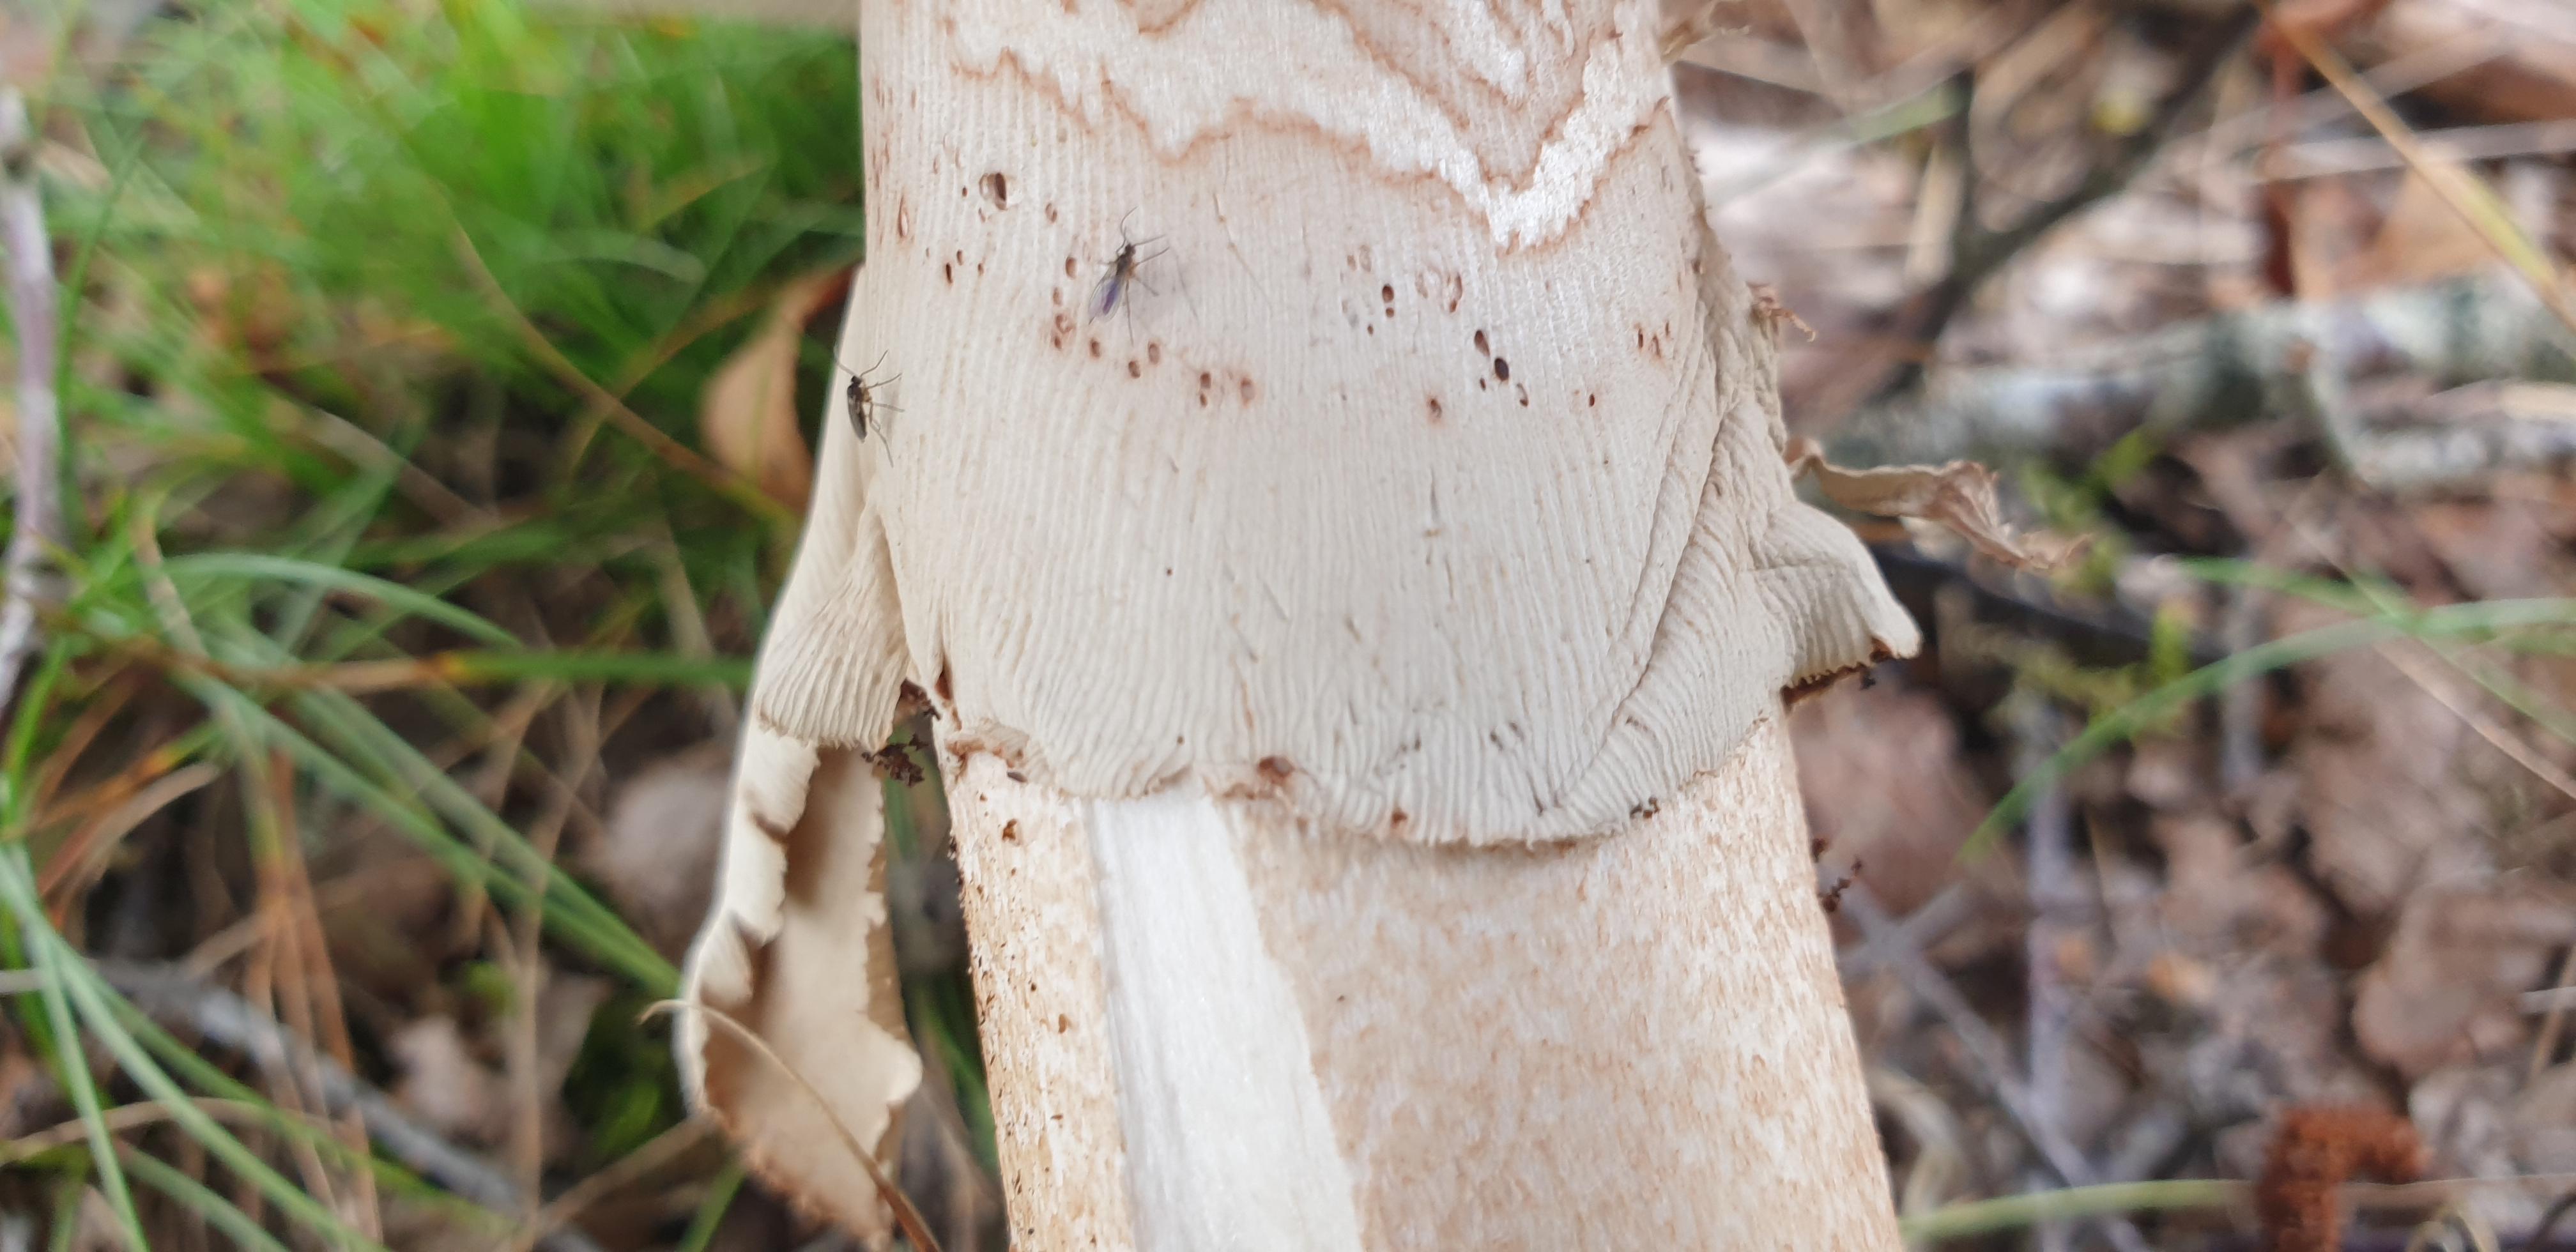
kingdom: Fungi
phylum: Basidiomycota
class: Agaricomycetes
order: Agaricales
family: Amanitaceae
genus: Amanita
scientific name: Amanita rubescens
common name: rødmende fluesvamp
